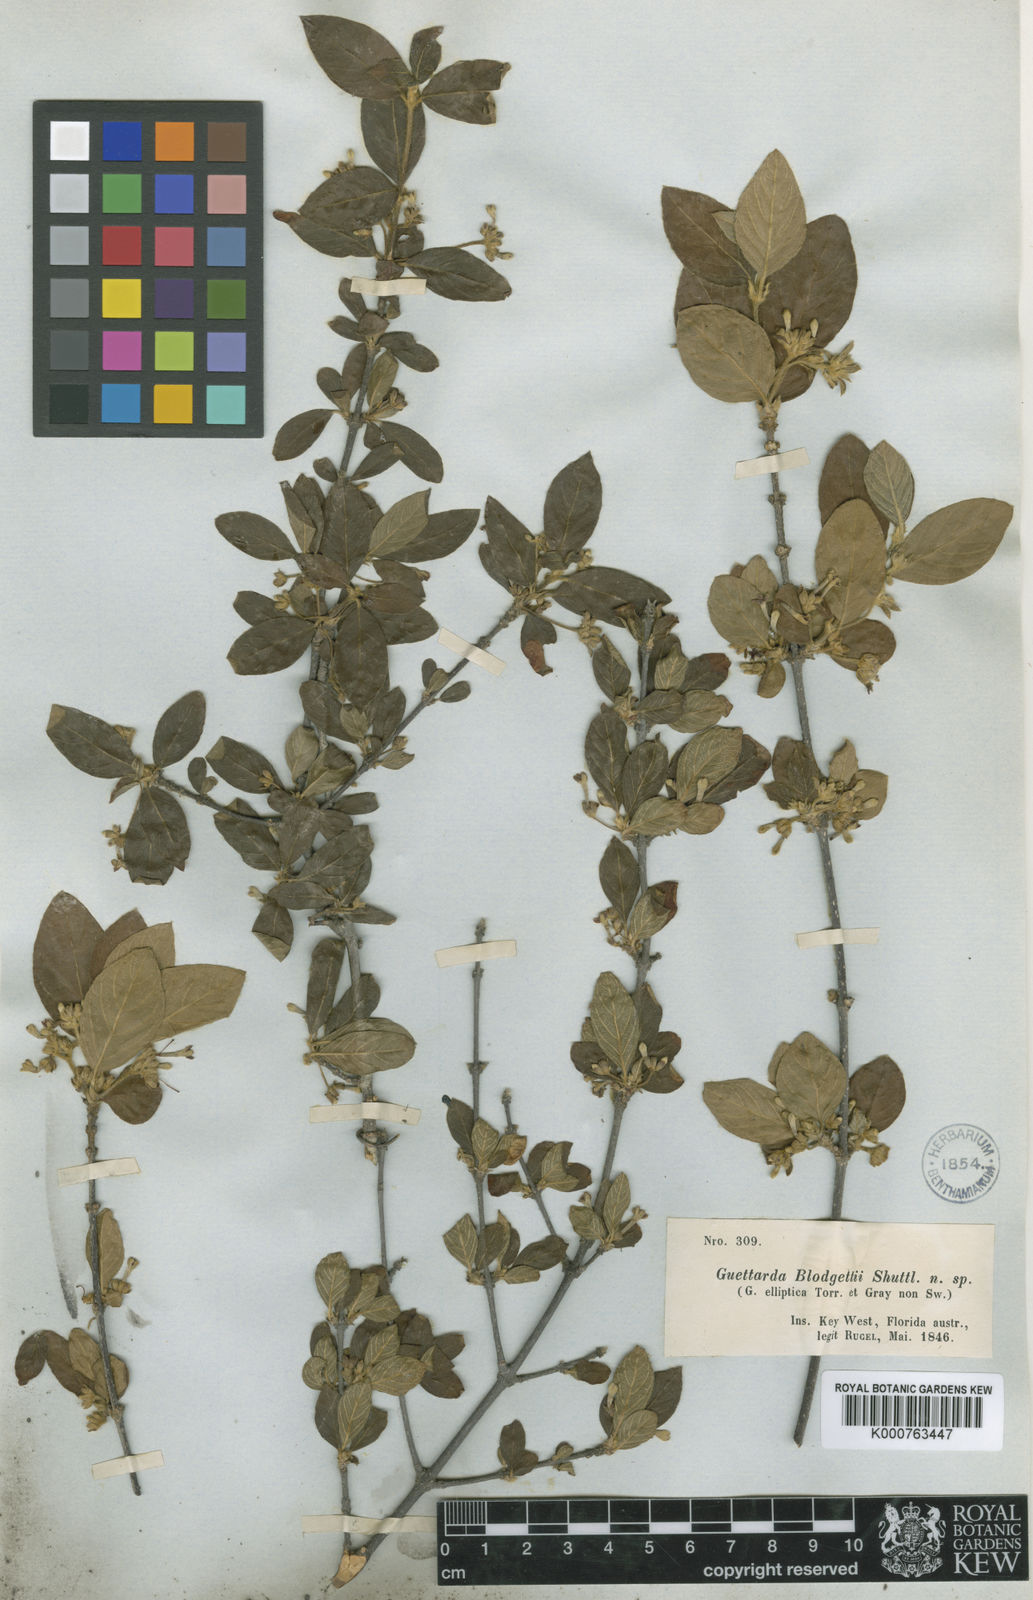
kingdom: Plantae
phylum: Tracheophyta
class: Magnoliopsida
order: Gentianales
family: Rubiaceae
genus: Guettarda
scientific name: Guettarda
